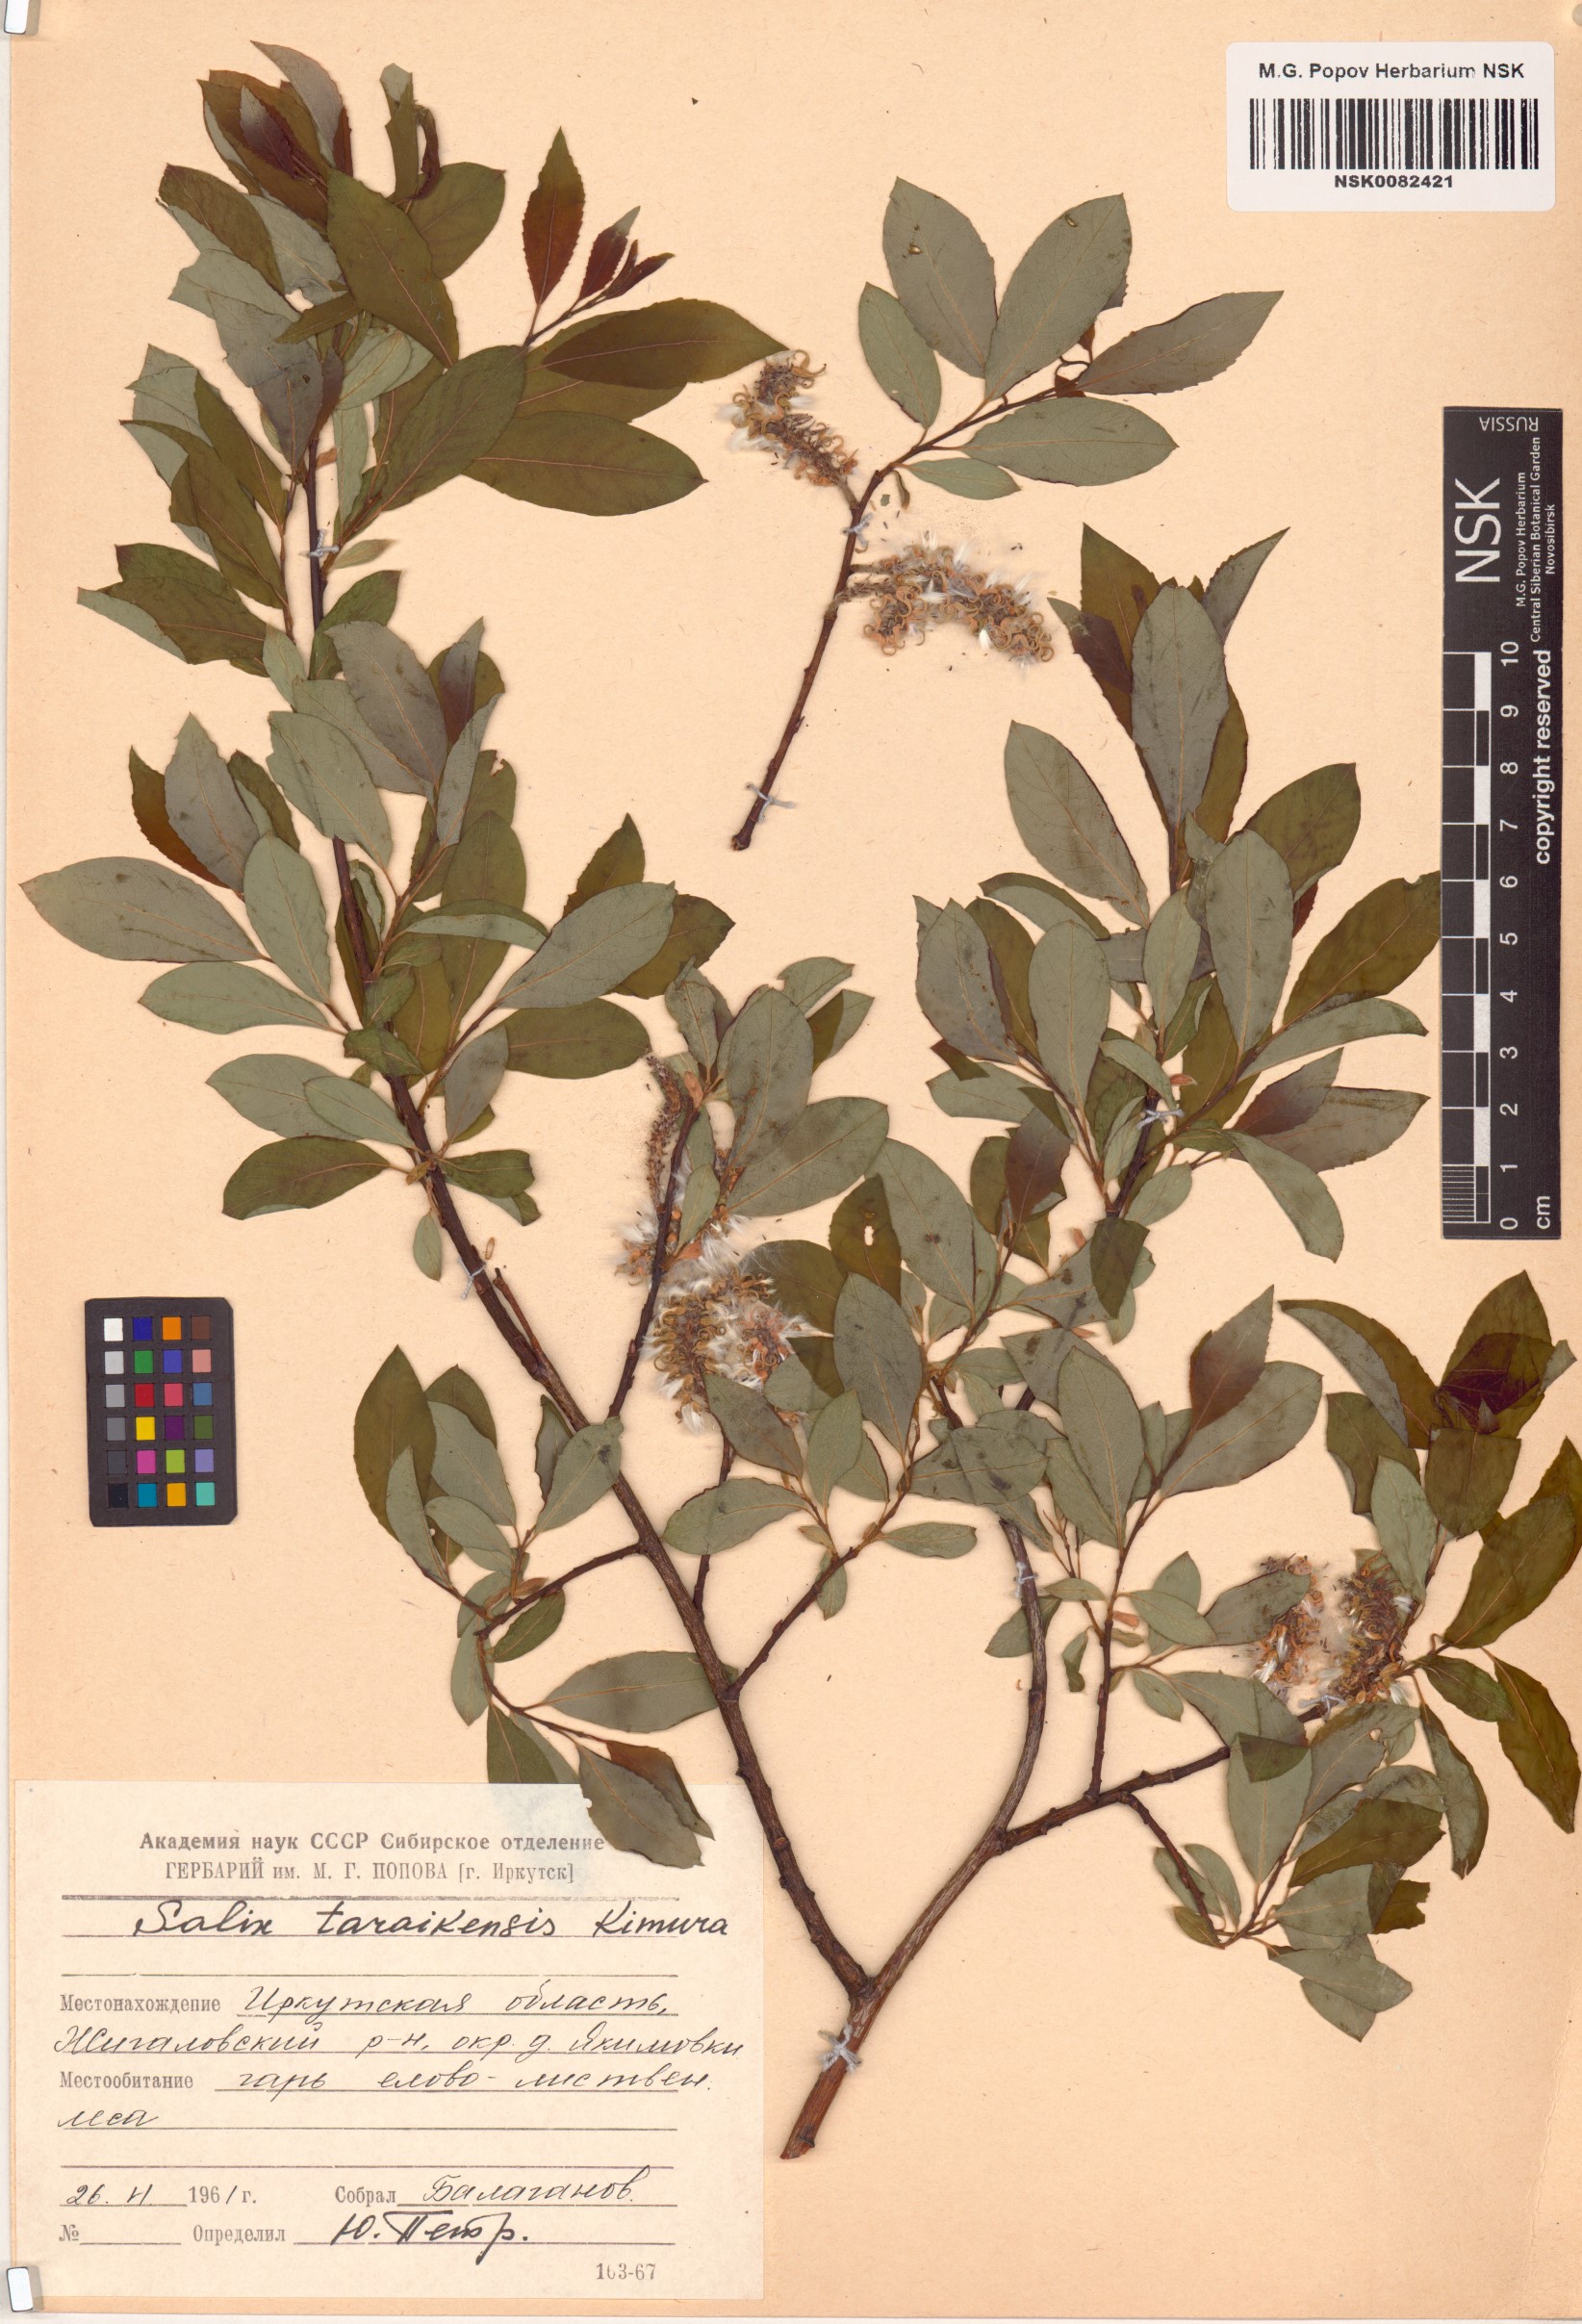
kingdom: Plantae
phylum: Tracheophyta
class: Magnoliopsida
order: Malpighiales
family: Salicaceae
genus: Salix
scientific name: Salix taraikensis
